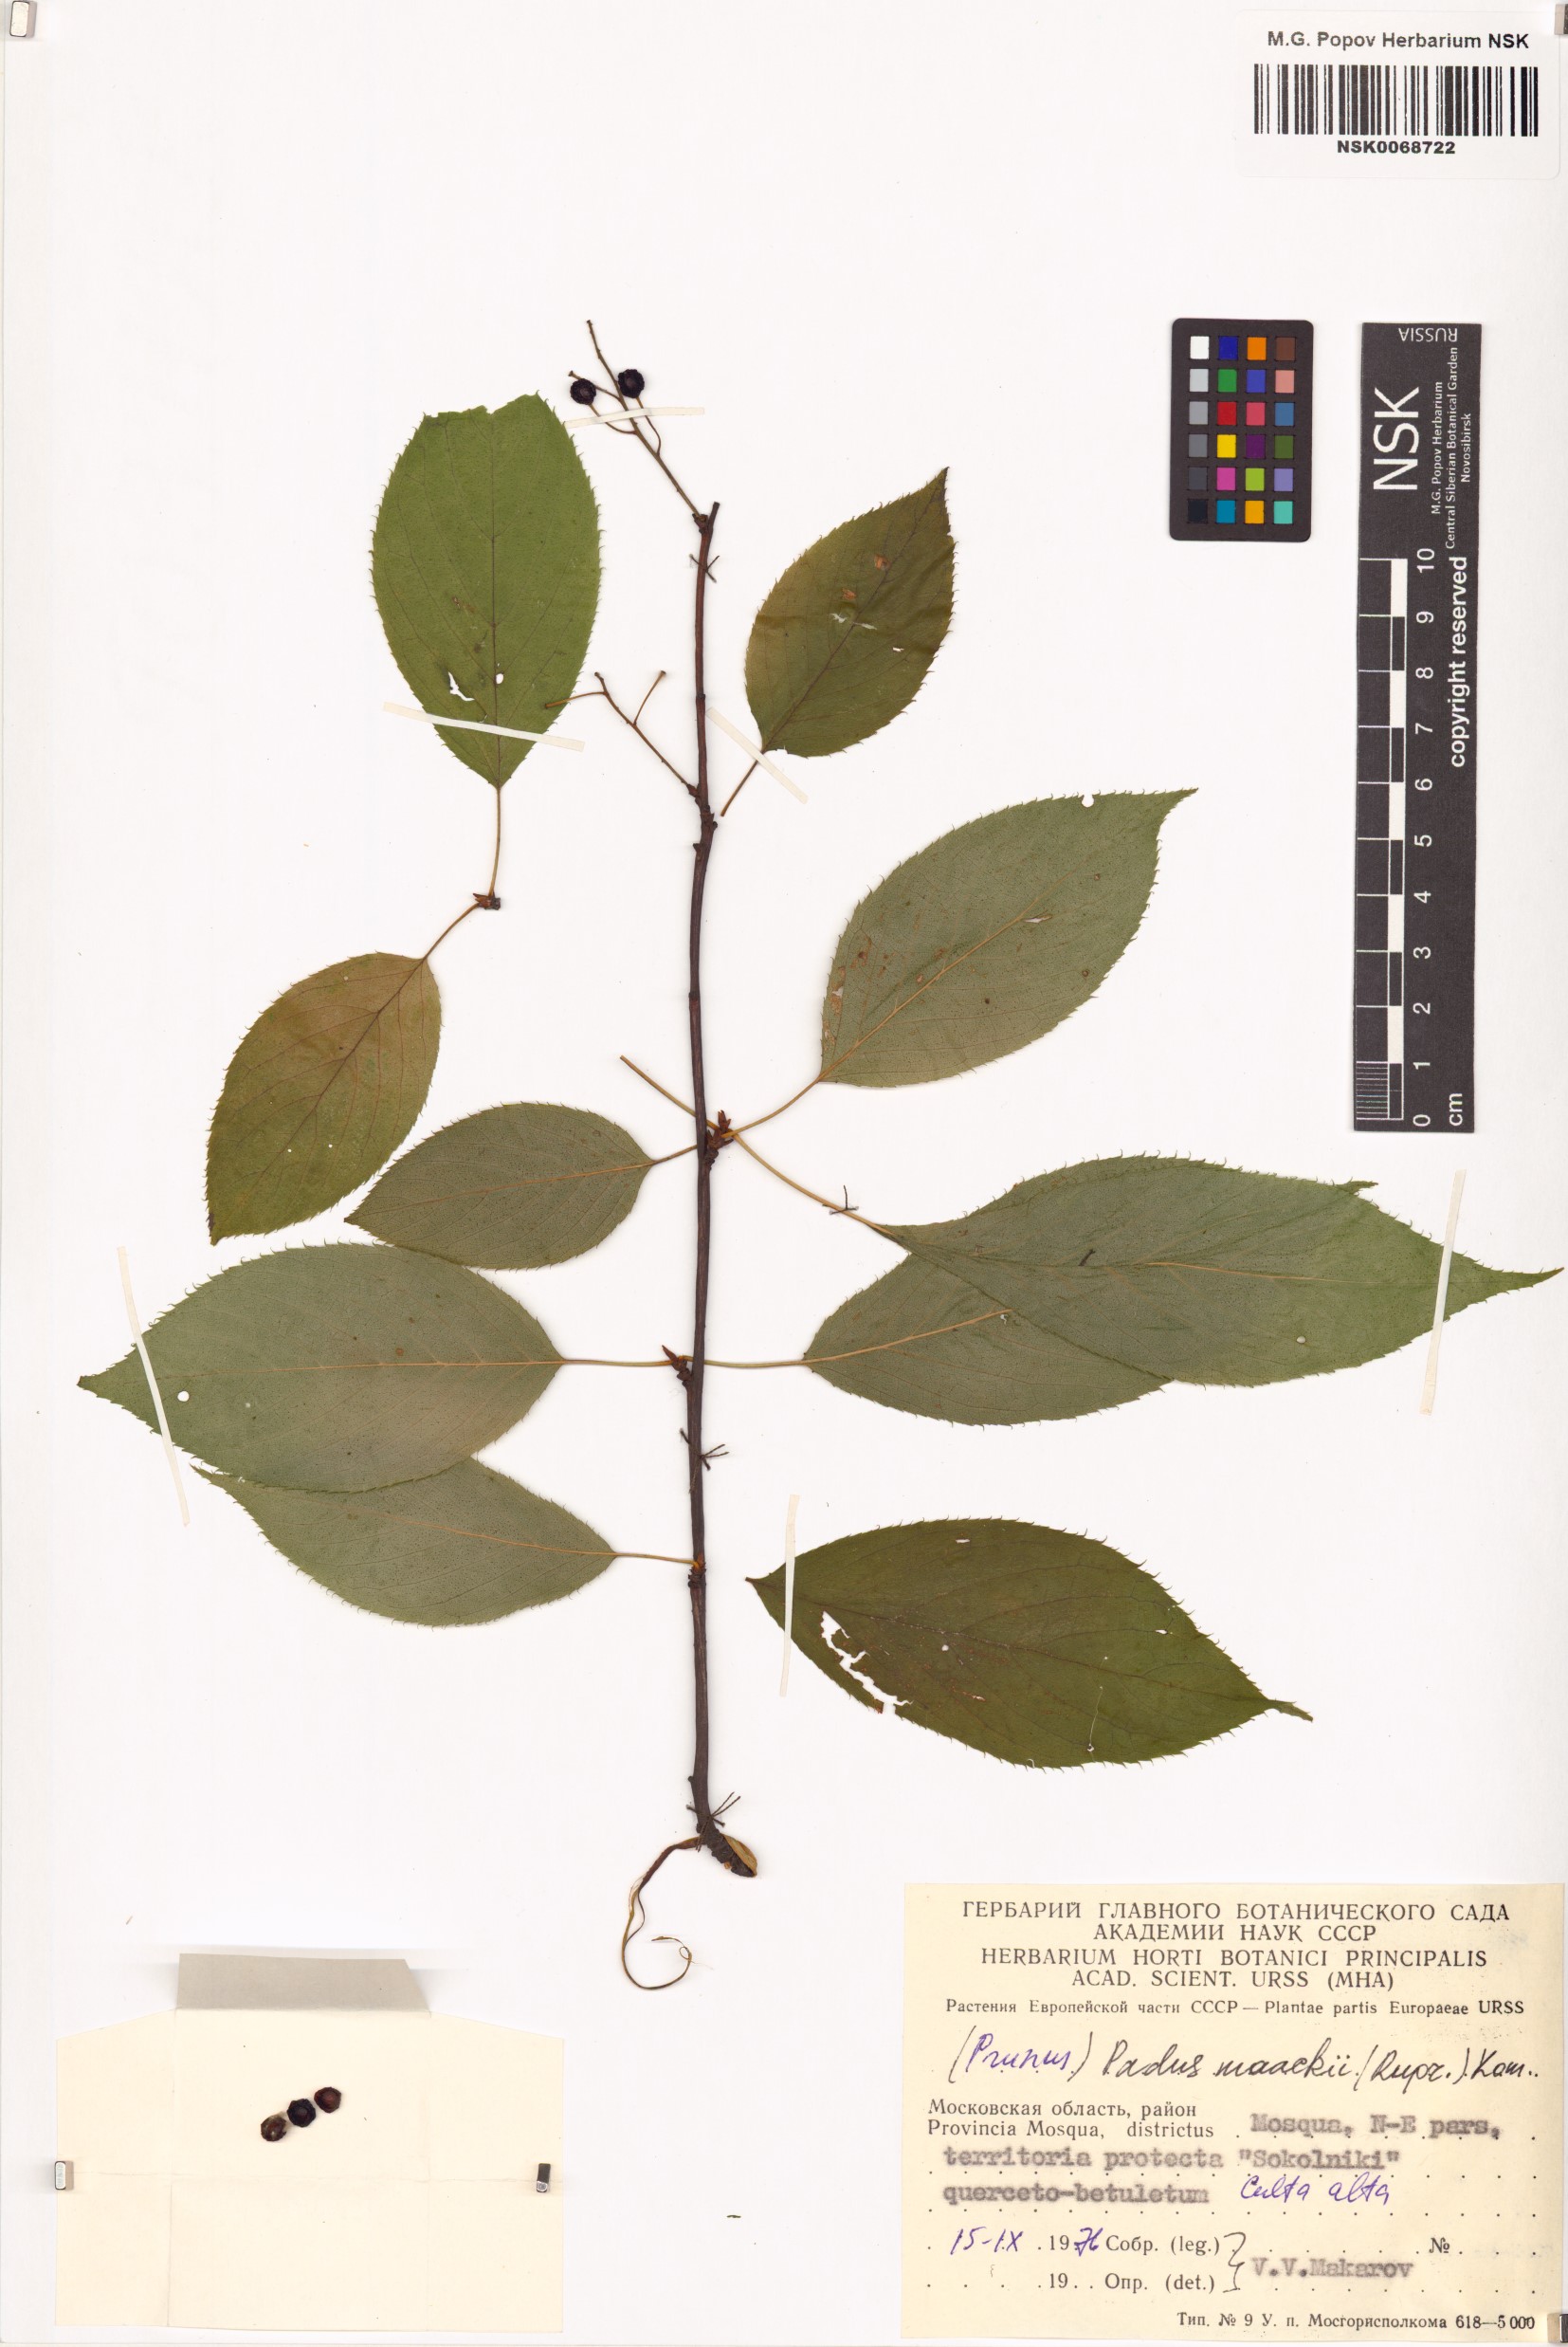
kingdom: Plantae
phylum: Tracheophyta
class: Magnoliopsida
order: Rosales
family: Rosaceae
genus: Prunus
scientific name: Prunus glandulifolia
